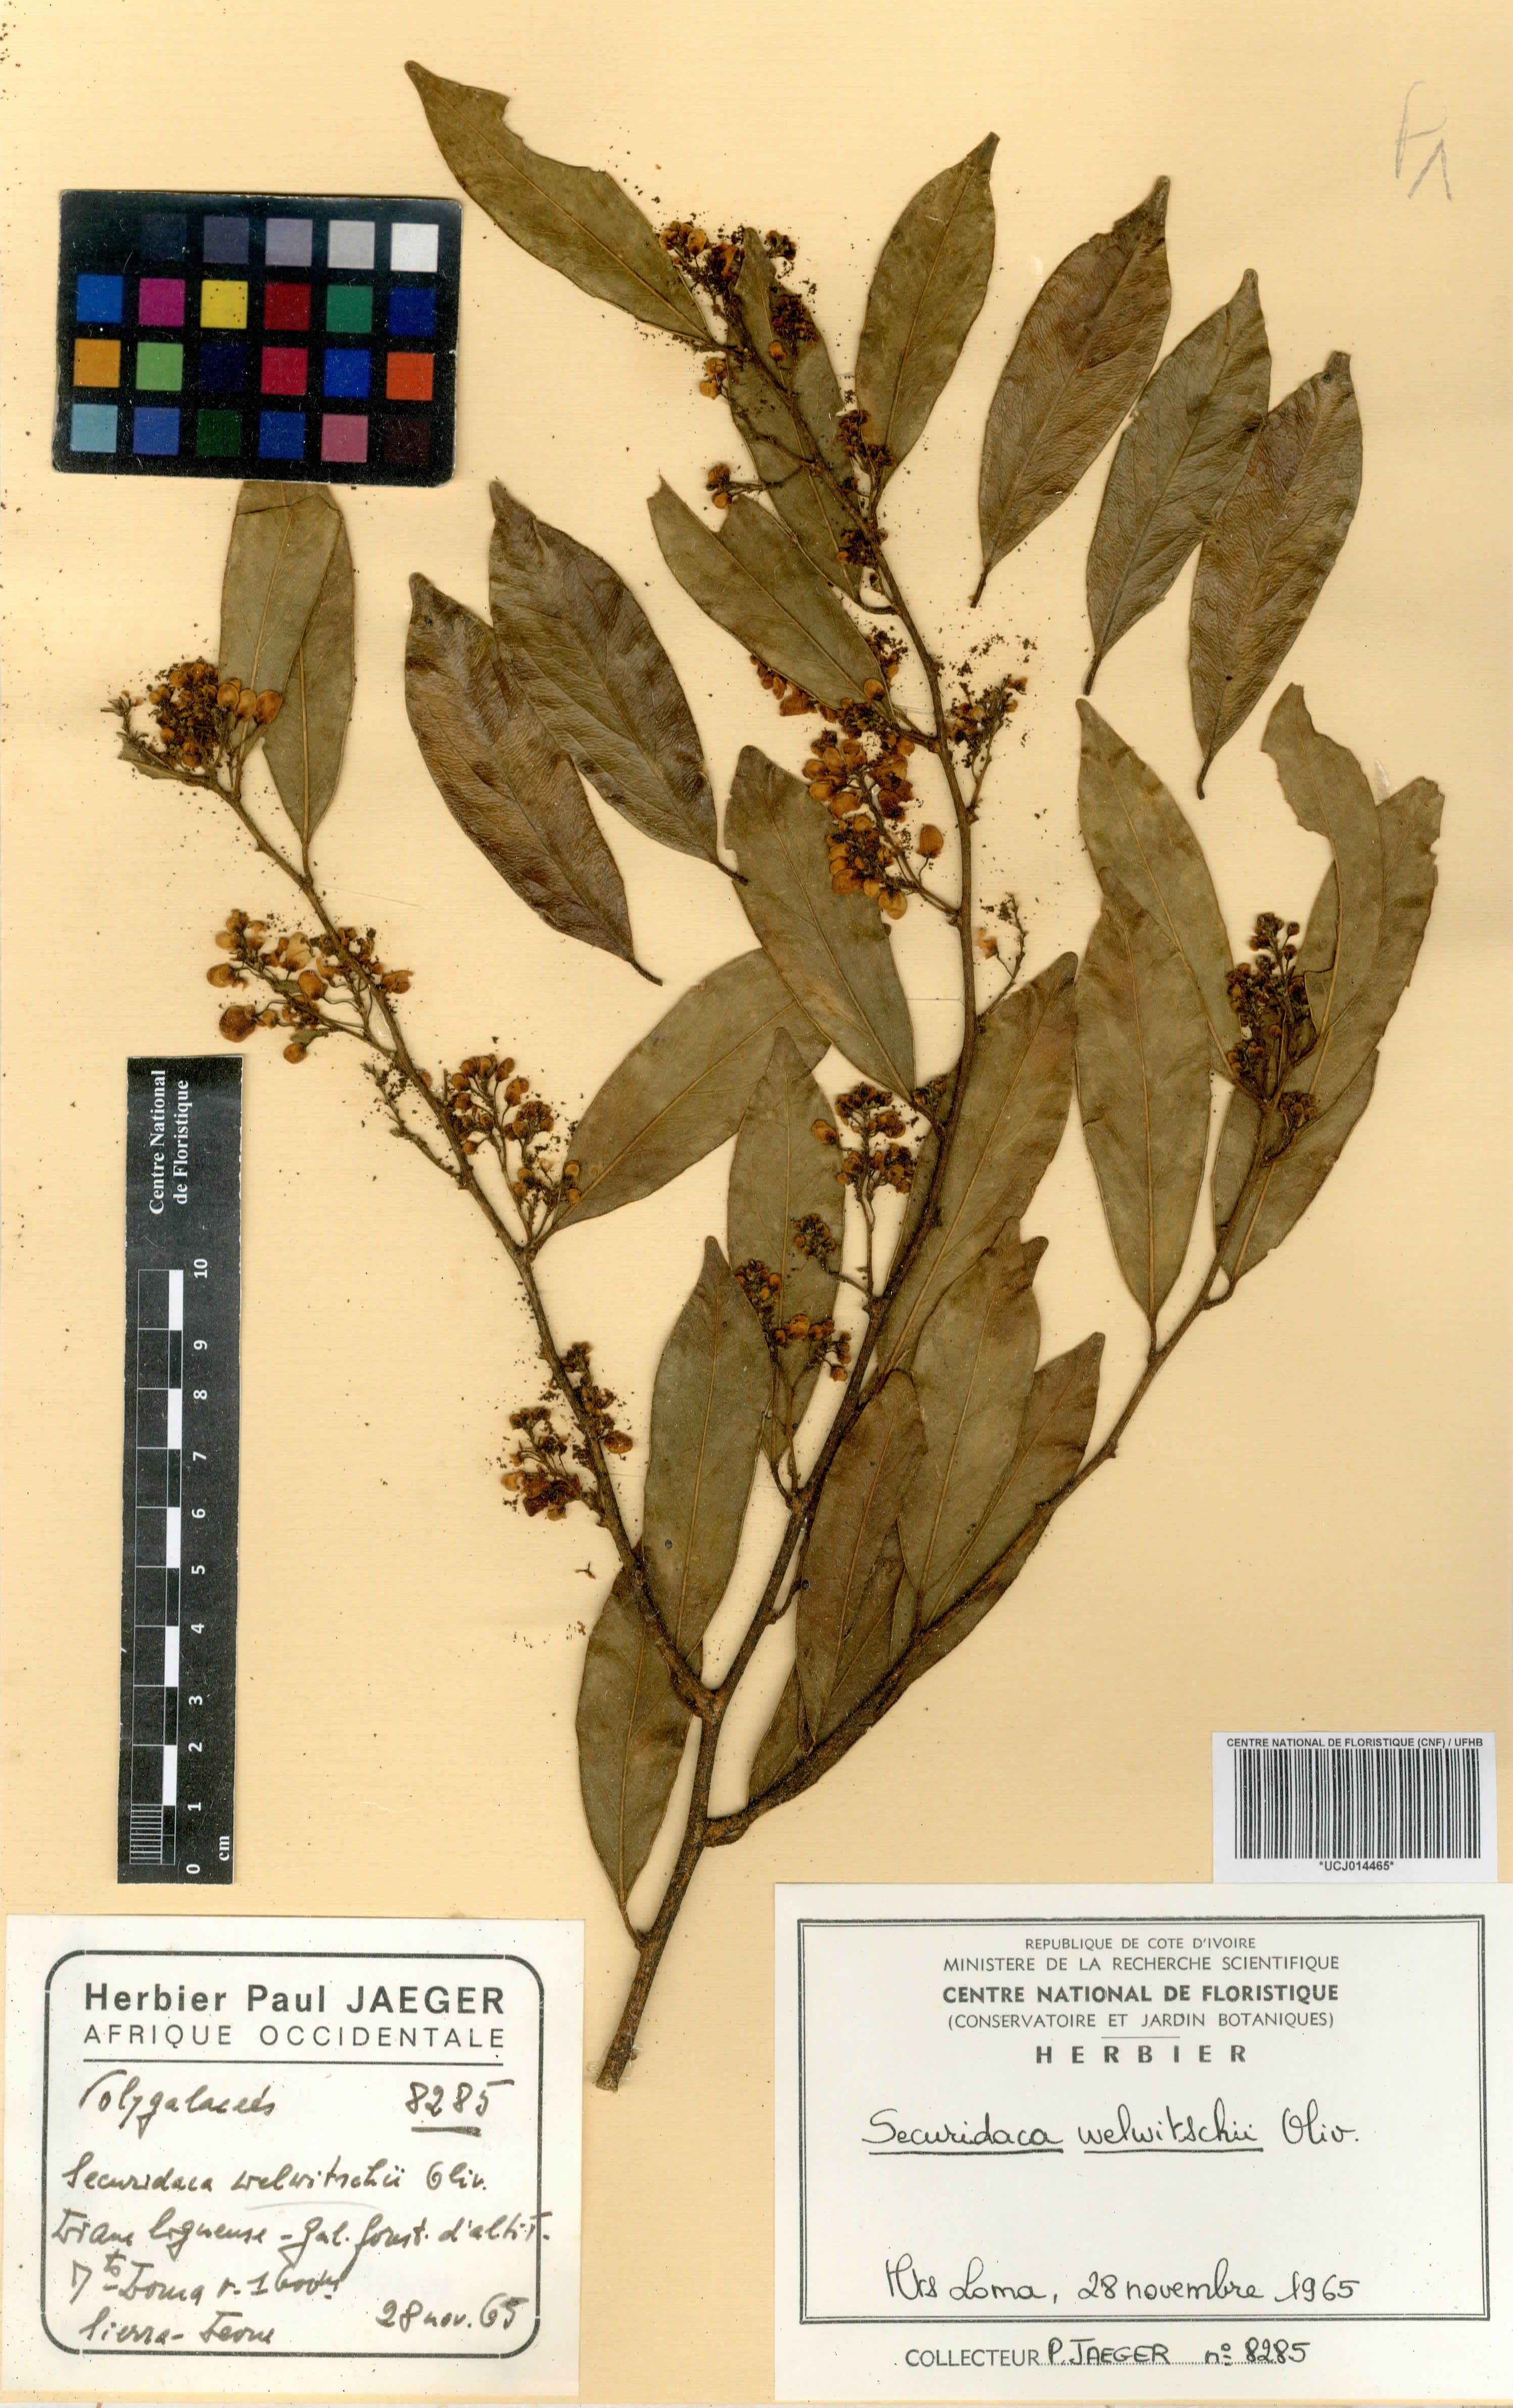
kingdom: Plantae
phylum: Tracheophyta
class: Magnoliopsida
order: Fabales
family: Polygalaceae
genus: Securidaca
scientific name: Securidaca welwitschii
